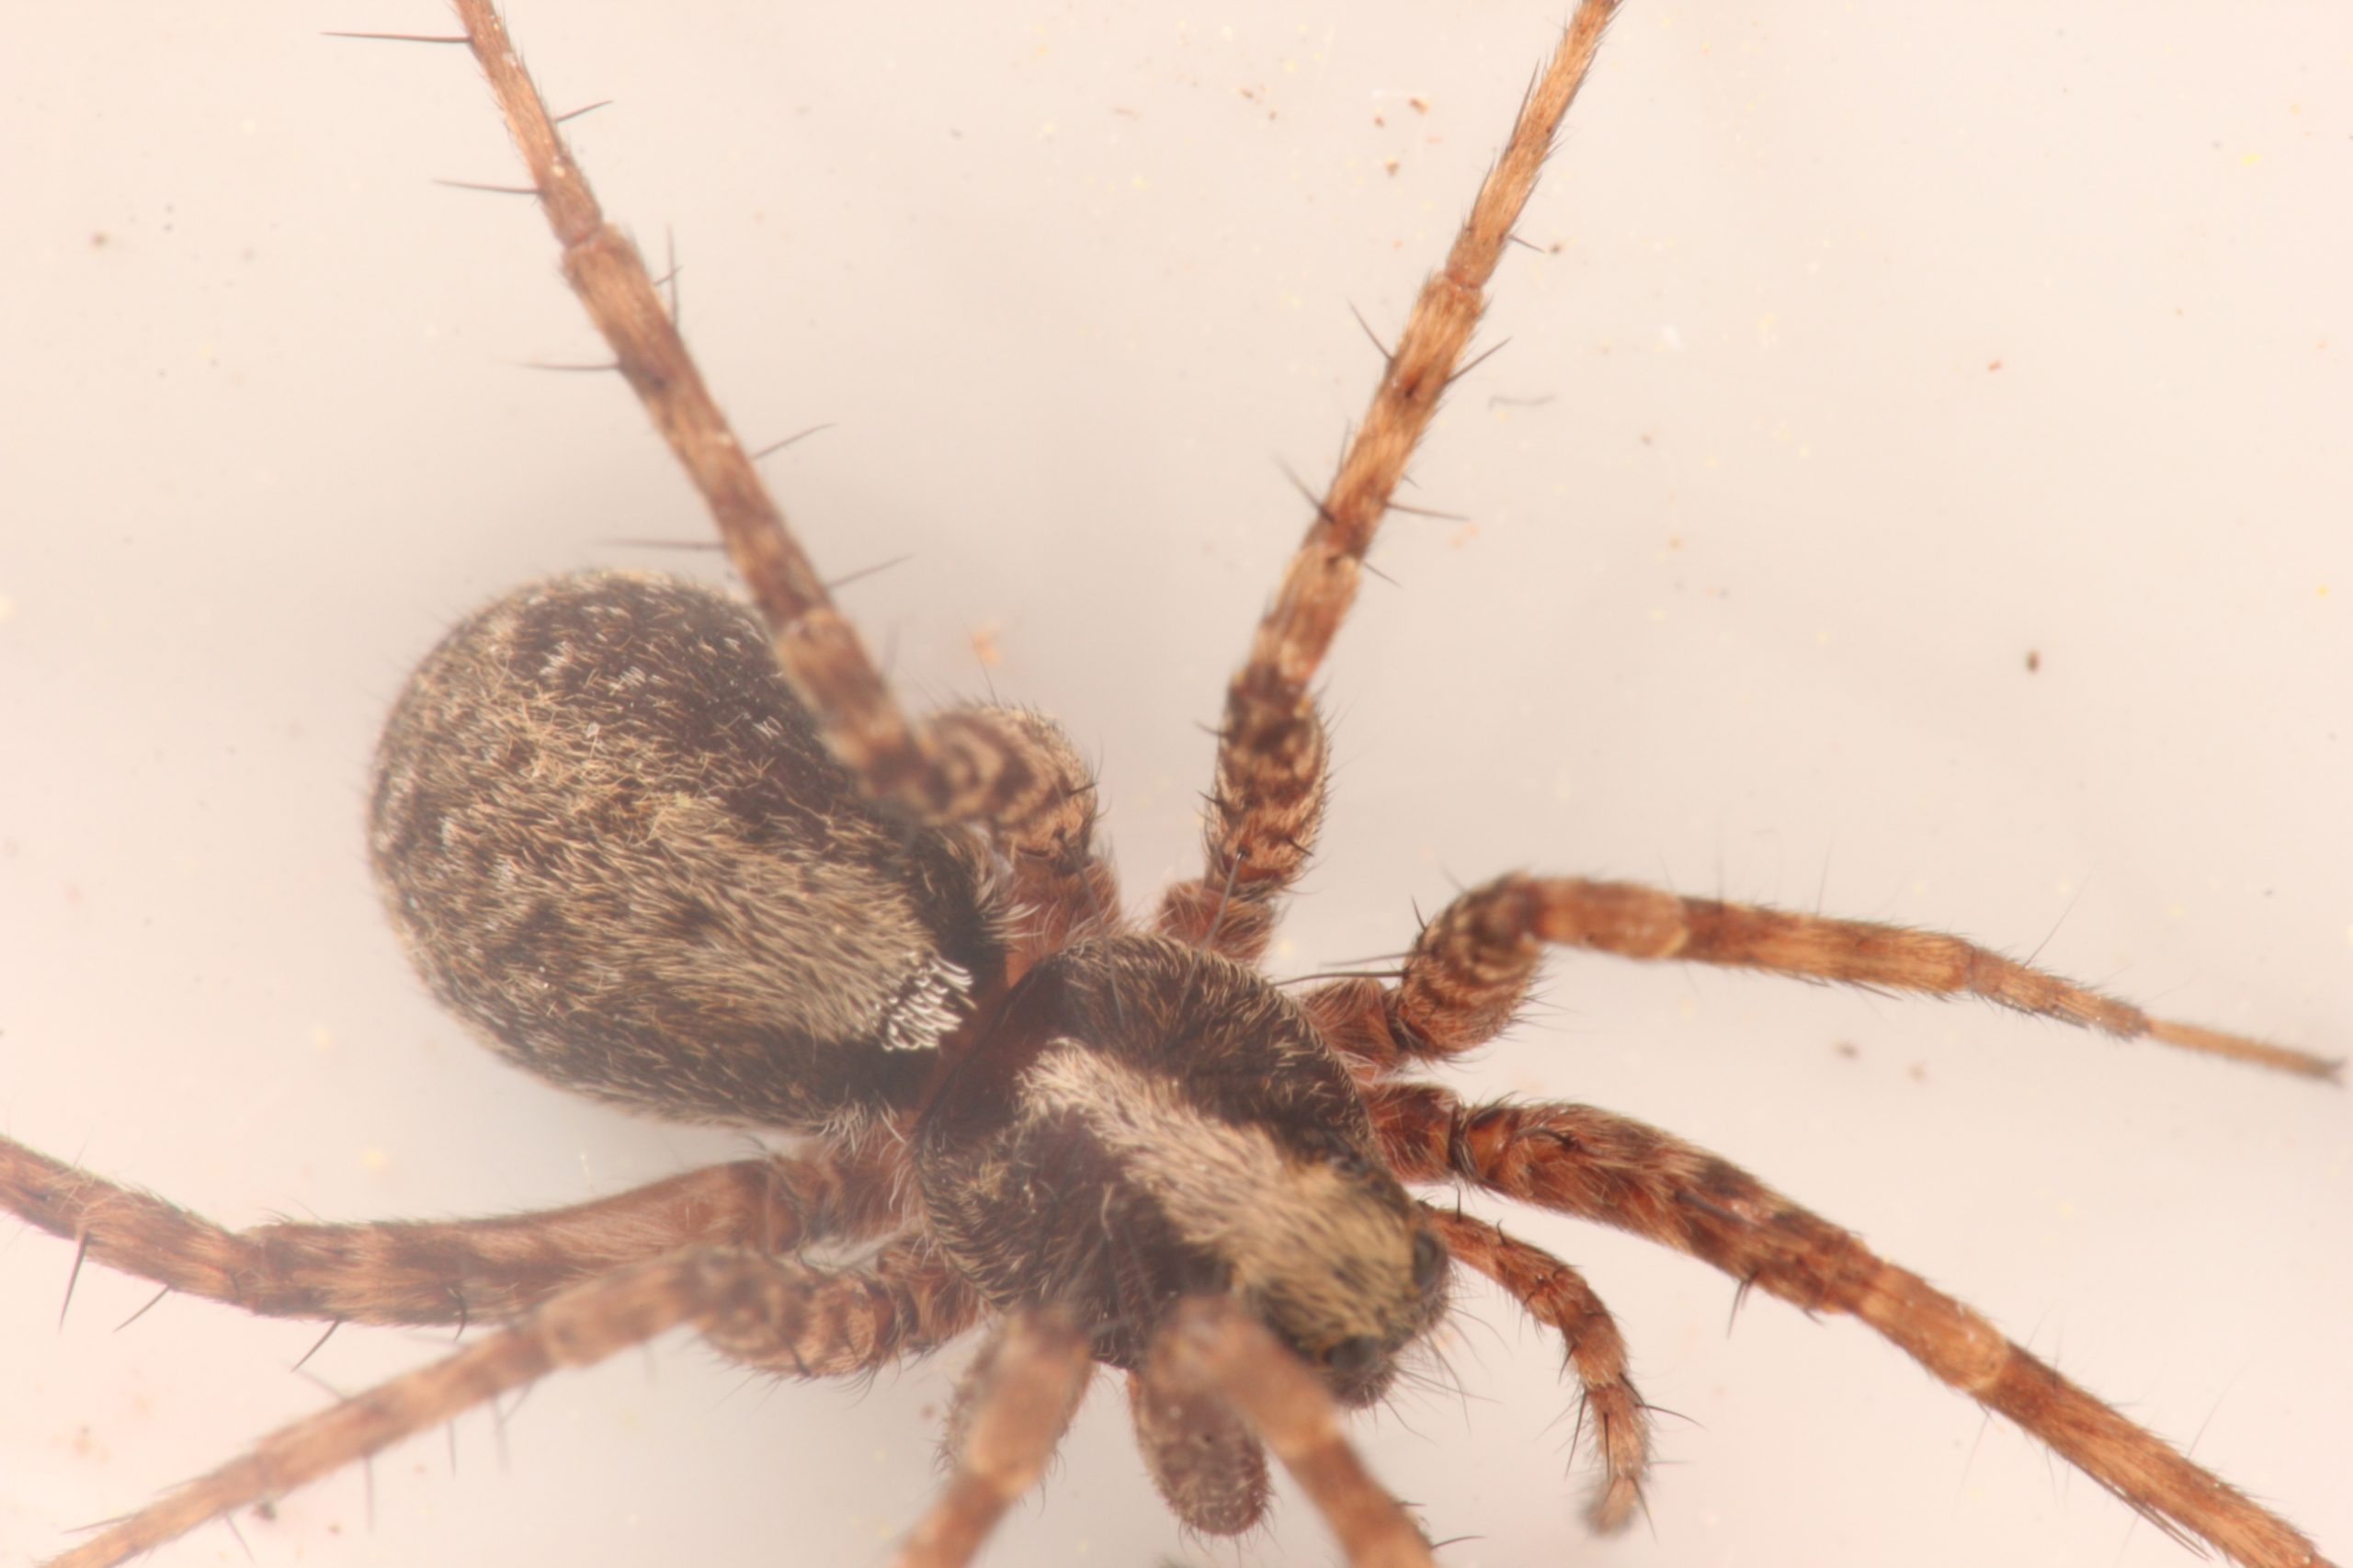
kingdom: Animalia
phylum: Arthropoda
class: Arachnida
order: Araneae
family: Lycosidae
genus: Pardosa
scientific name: Pardosa
